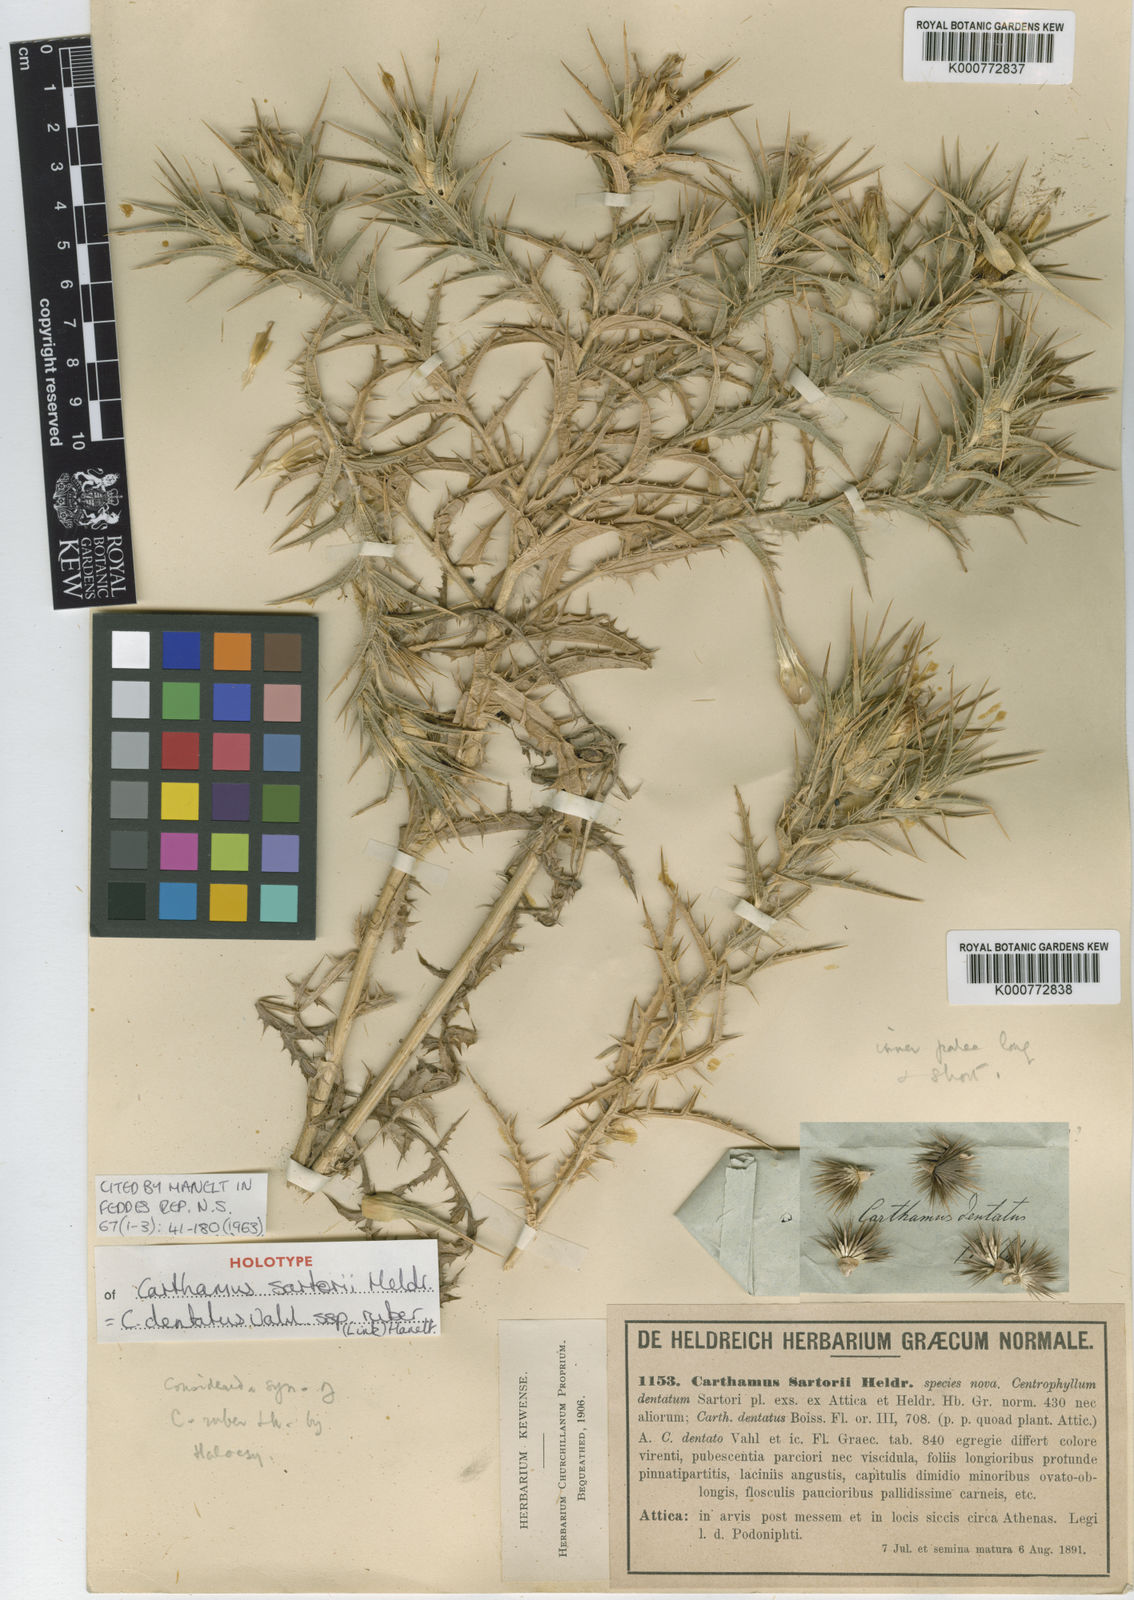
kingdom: Plantae
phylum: Tracheophyta
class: Magnoliopsida
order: Asterales
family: Asteraceae
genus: Carthamus
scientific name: Carthamus dentatus
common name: Toothed thistle
